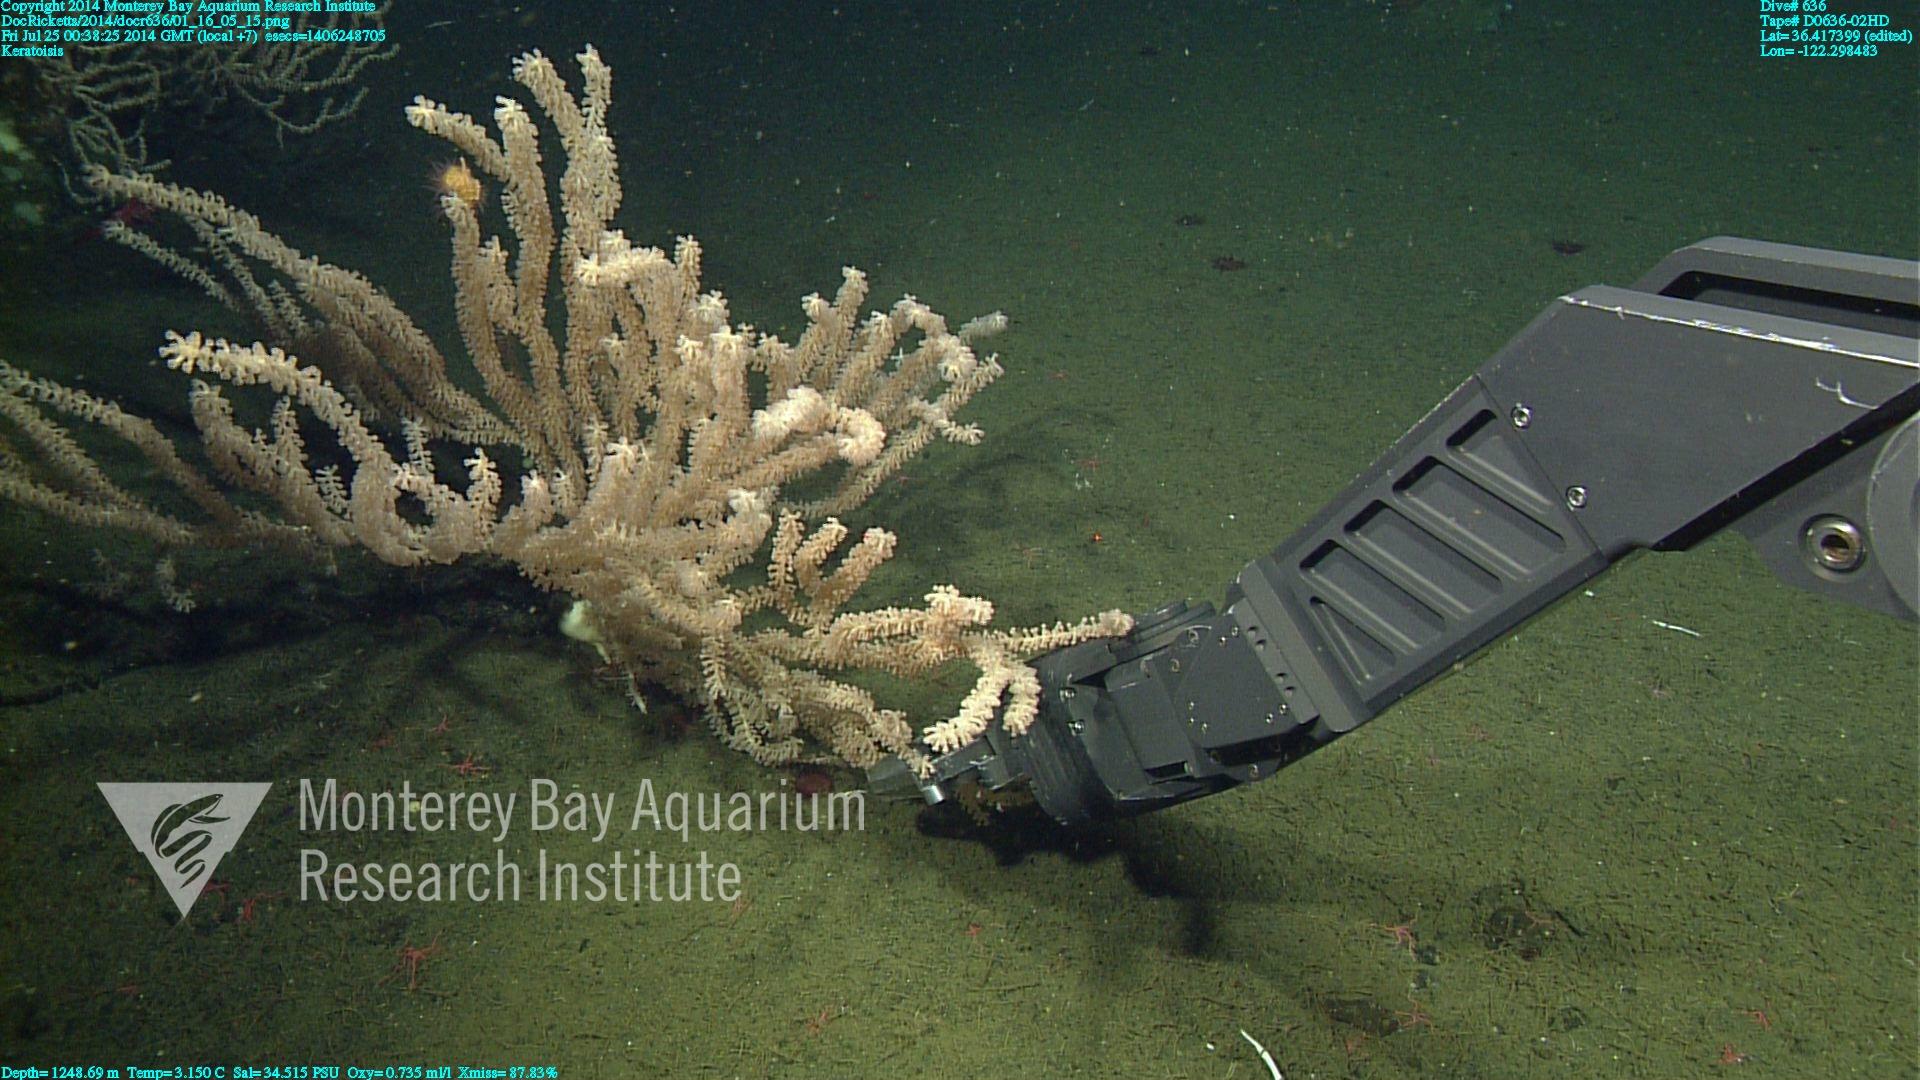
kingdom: Animalia
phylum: Cnidaria
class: Anthozoa
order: Scleralcyonacea
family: Keratoisididae
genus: Keratoisis
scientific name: Keratoisis
